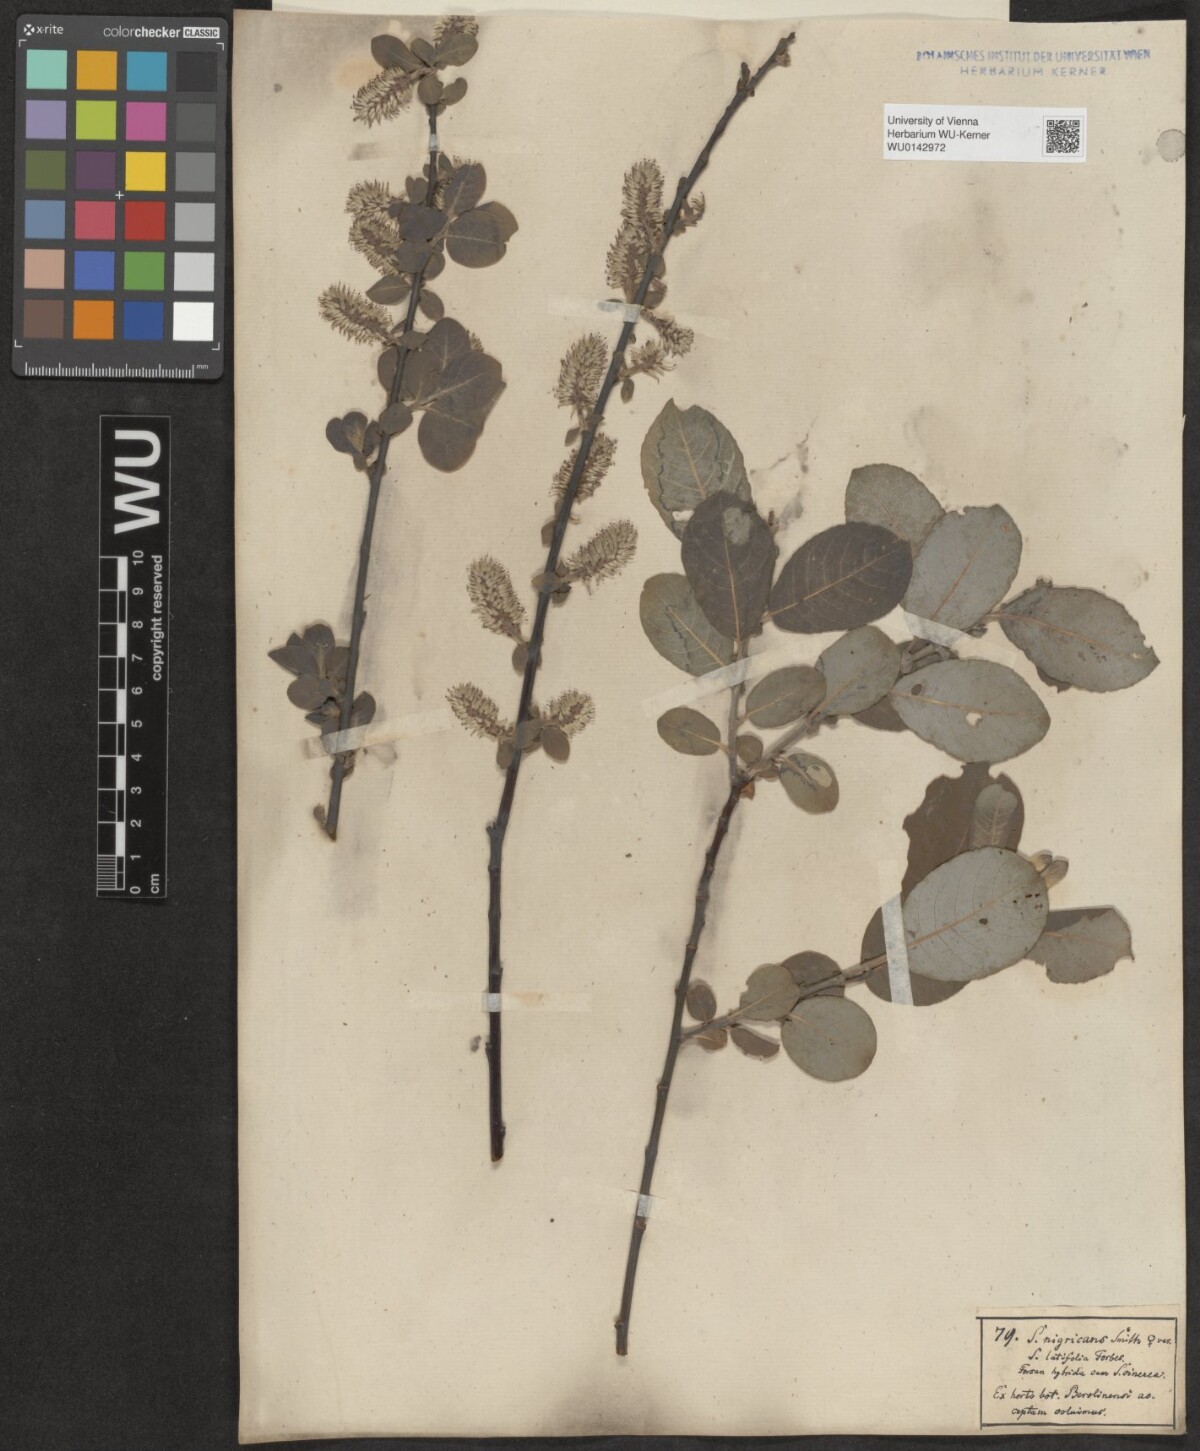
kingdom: Plantae
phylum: Tracheophyta
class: Magnoliopsida
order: Malpighiales
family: Salicaceae
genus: Salix
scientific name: Salix myrsinifolia
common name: Dark-leaved willow
